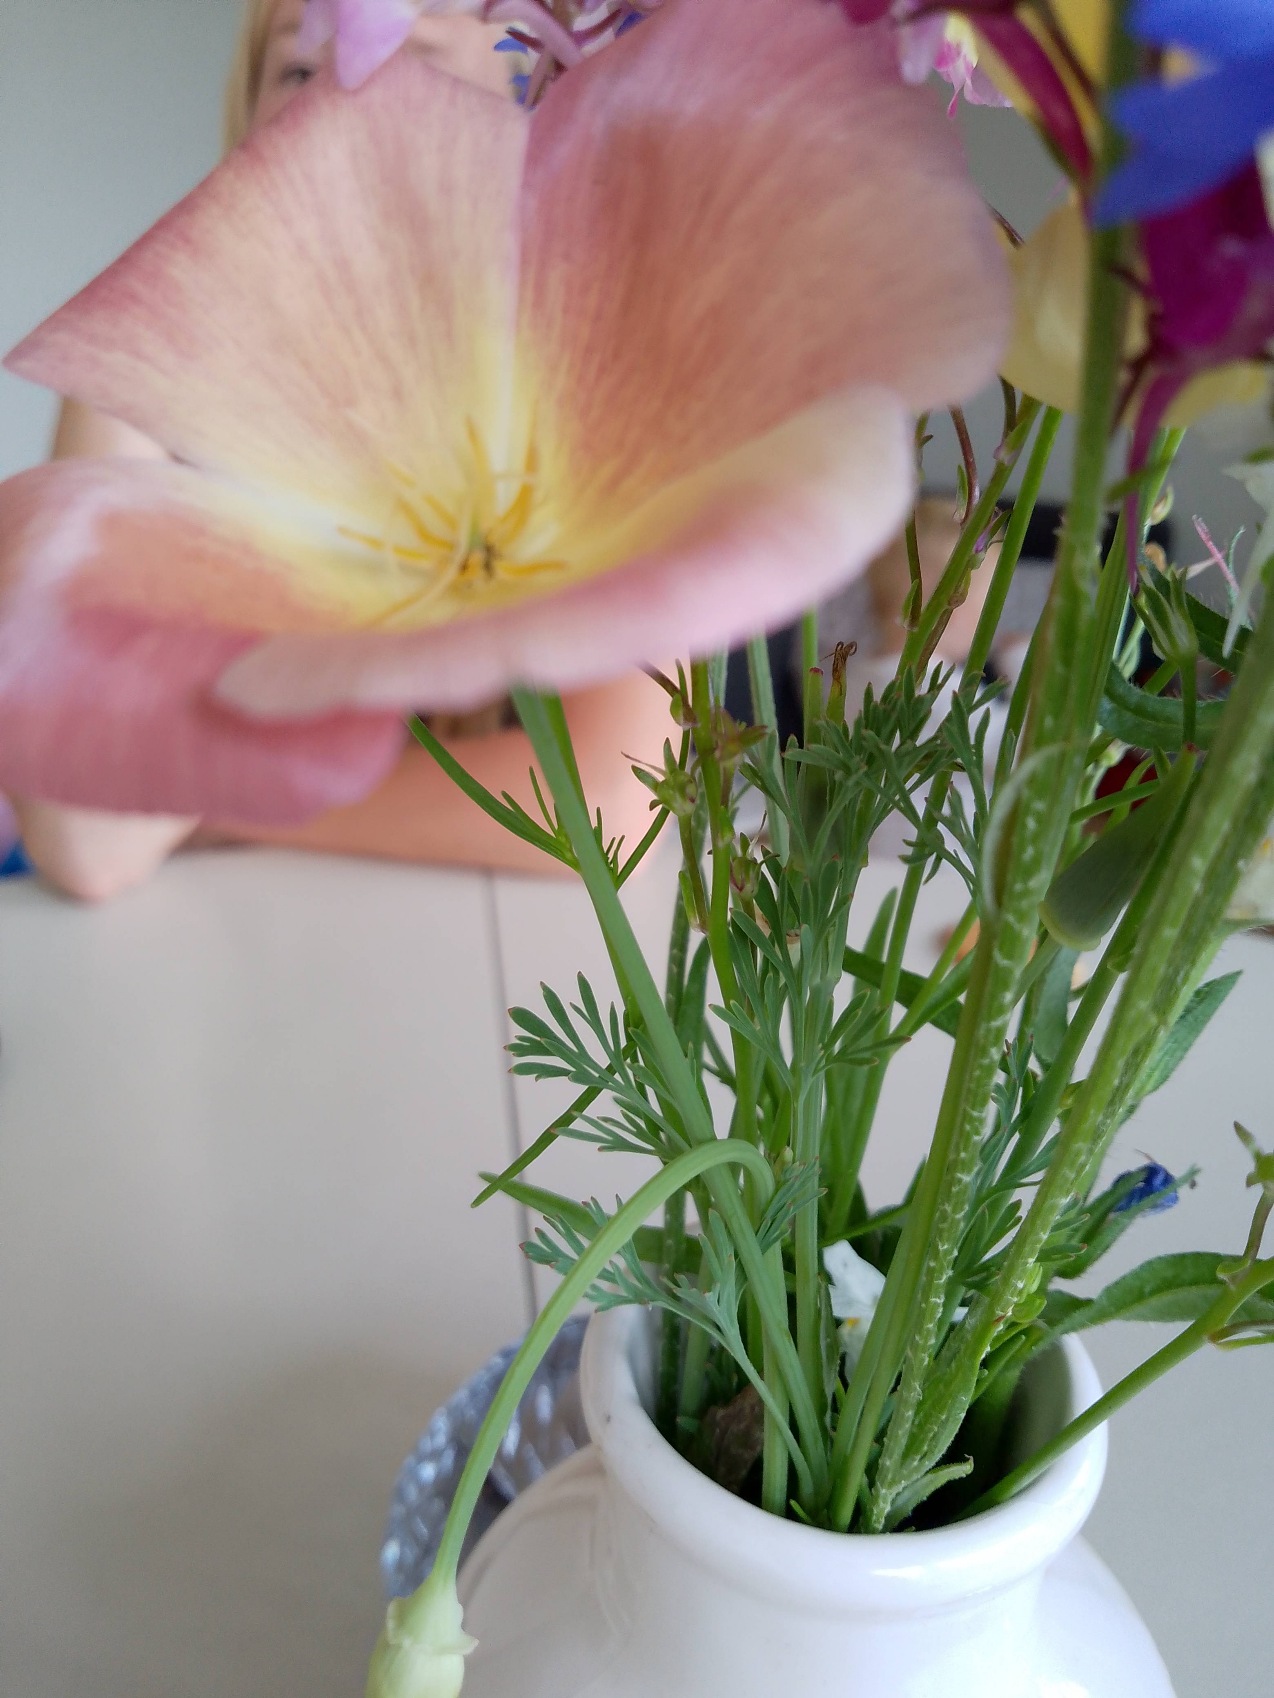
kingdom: Plantae
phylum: Tracheophyta
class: Magnoliopsida
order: Ranunculales
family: Papaveraceae
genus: Eschscholzia
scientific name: Eschscholzia californica
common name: Guldvalmue
